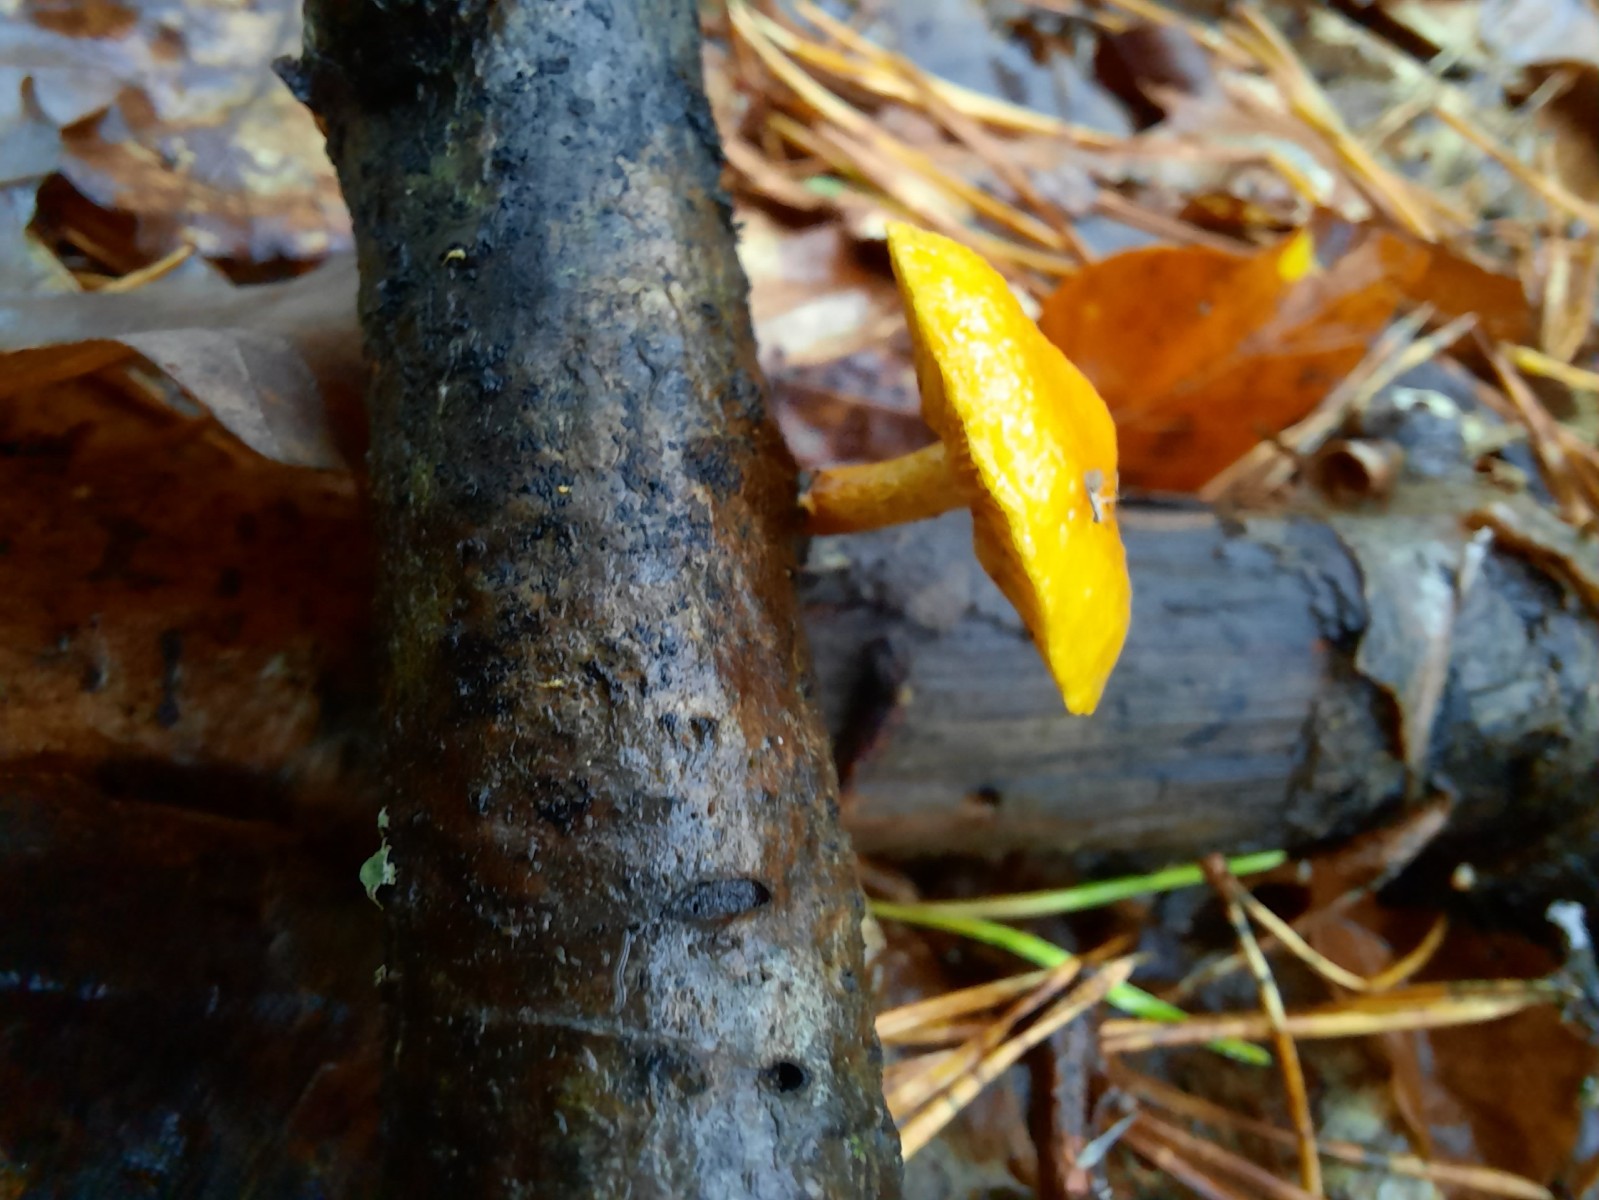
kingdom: Fungi
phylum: Basidiomycota
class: Agaricomycetes
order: Agaricales
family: Strophariaceae
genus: Pholiota
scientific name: Pholiota tuberculosa
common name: finskællet skælhat
